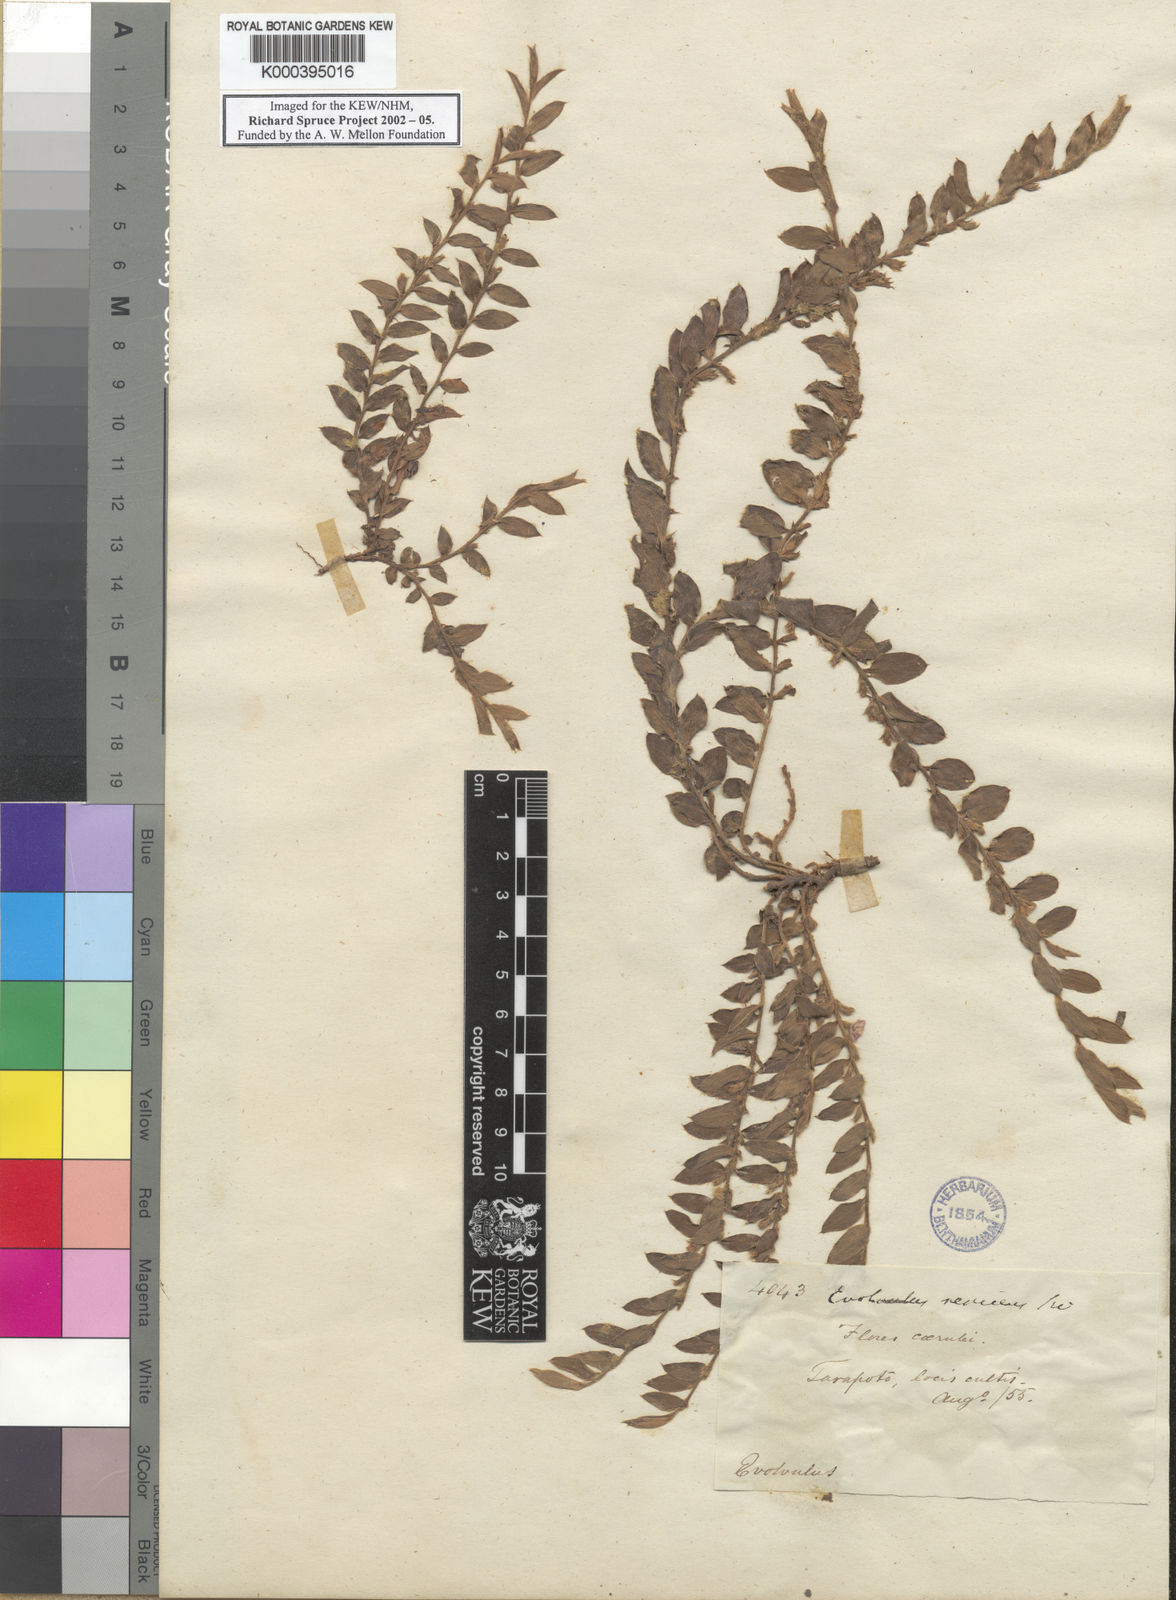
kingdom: Plantae
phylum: Tracheophyta
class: Magnoliopsida
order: Solanales
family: Convolvulaceae
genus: Evolvulus
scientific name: Evolvulus sericeus
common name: Blue dots
